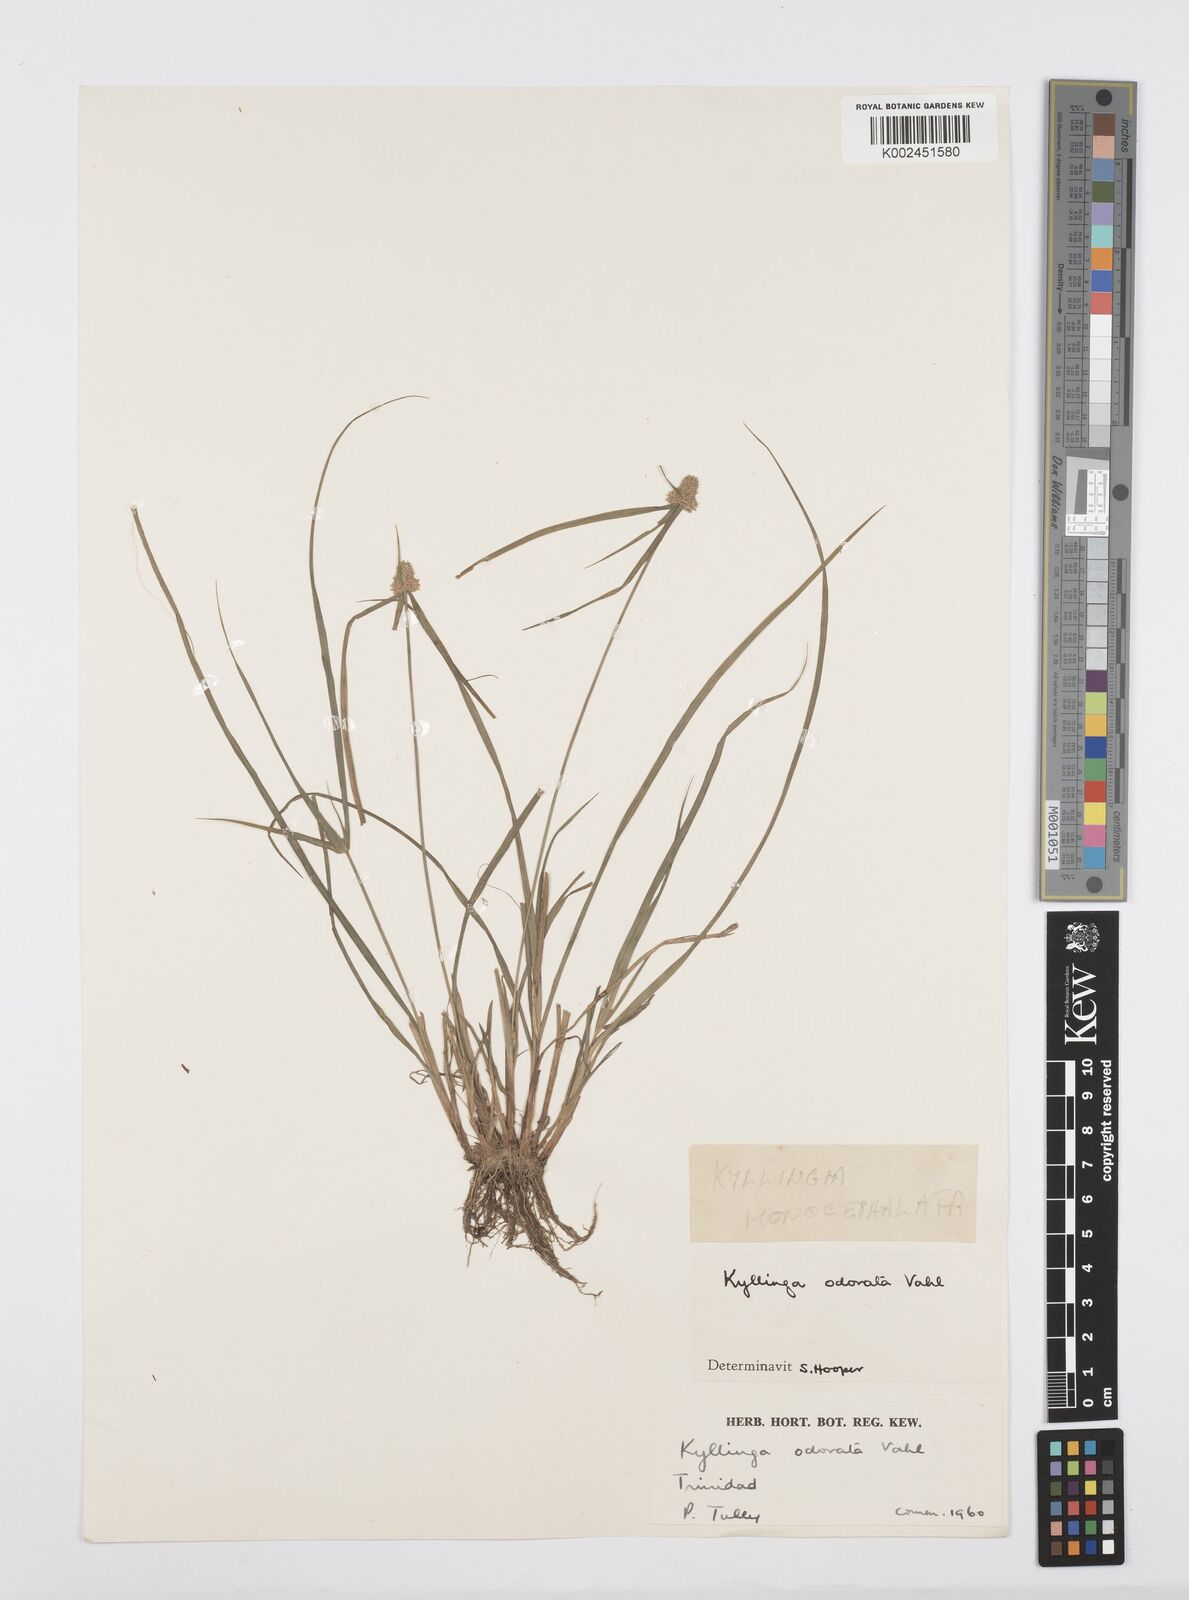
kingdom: Plantae
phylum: Tracheophyta
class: Liliopsida
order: Poales
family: Cyperaceae
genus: Cyperus
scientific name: Cyperus
